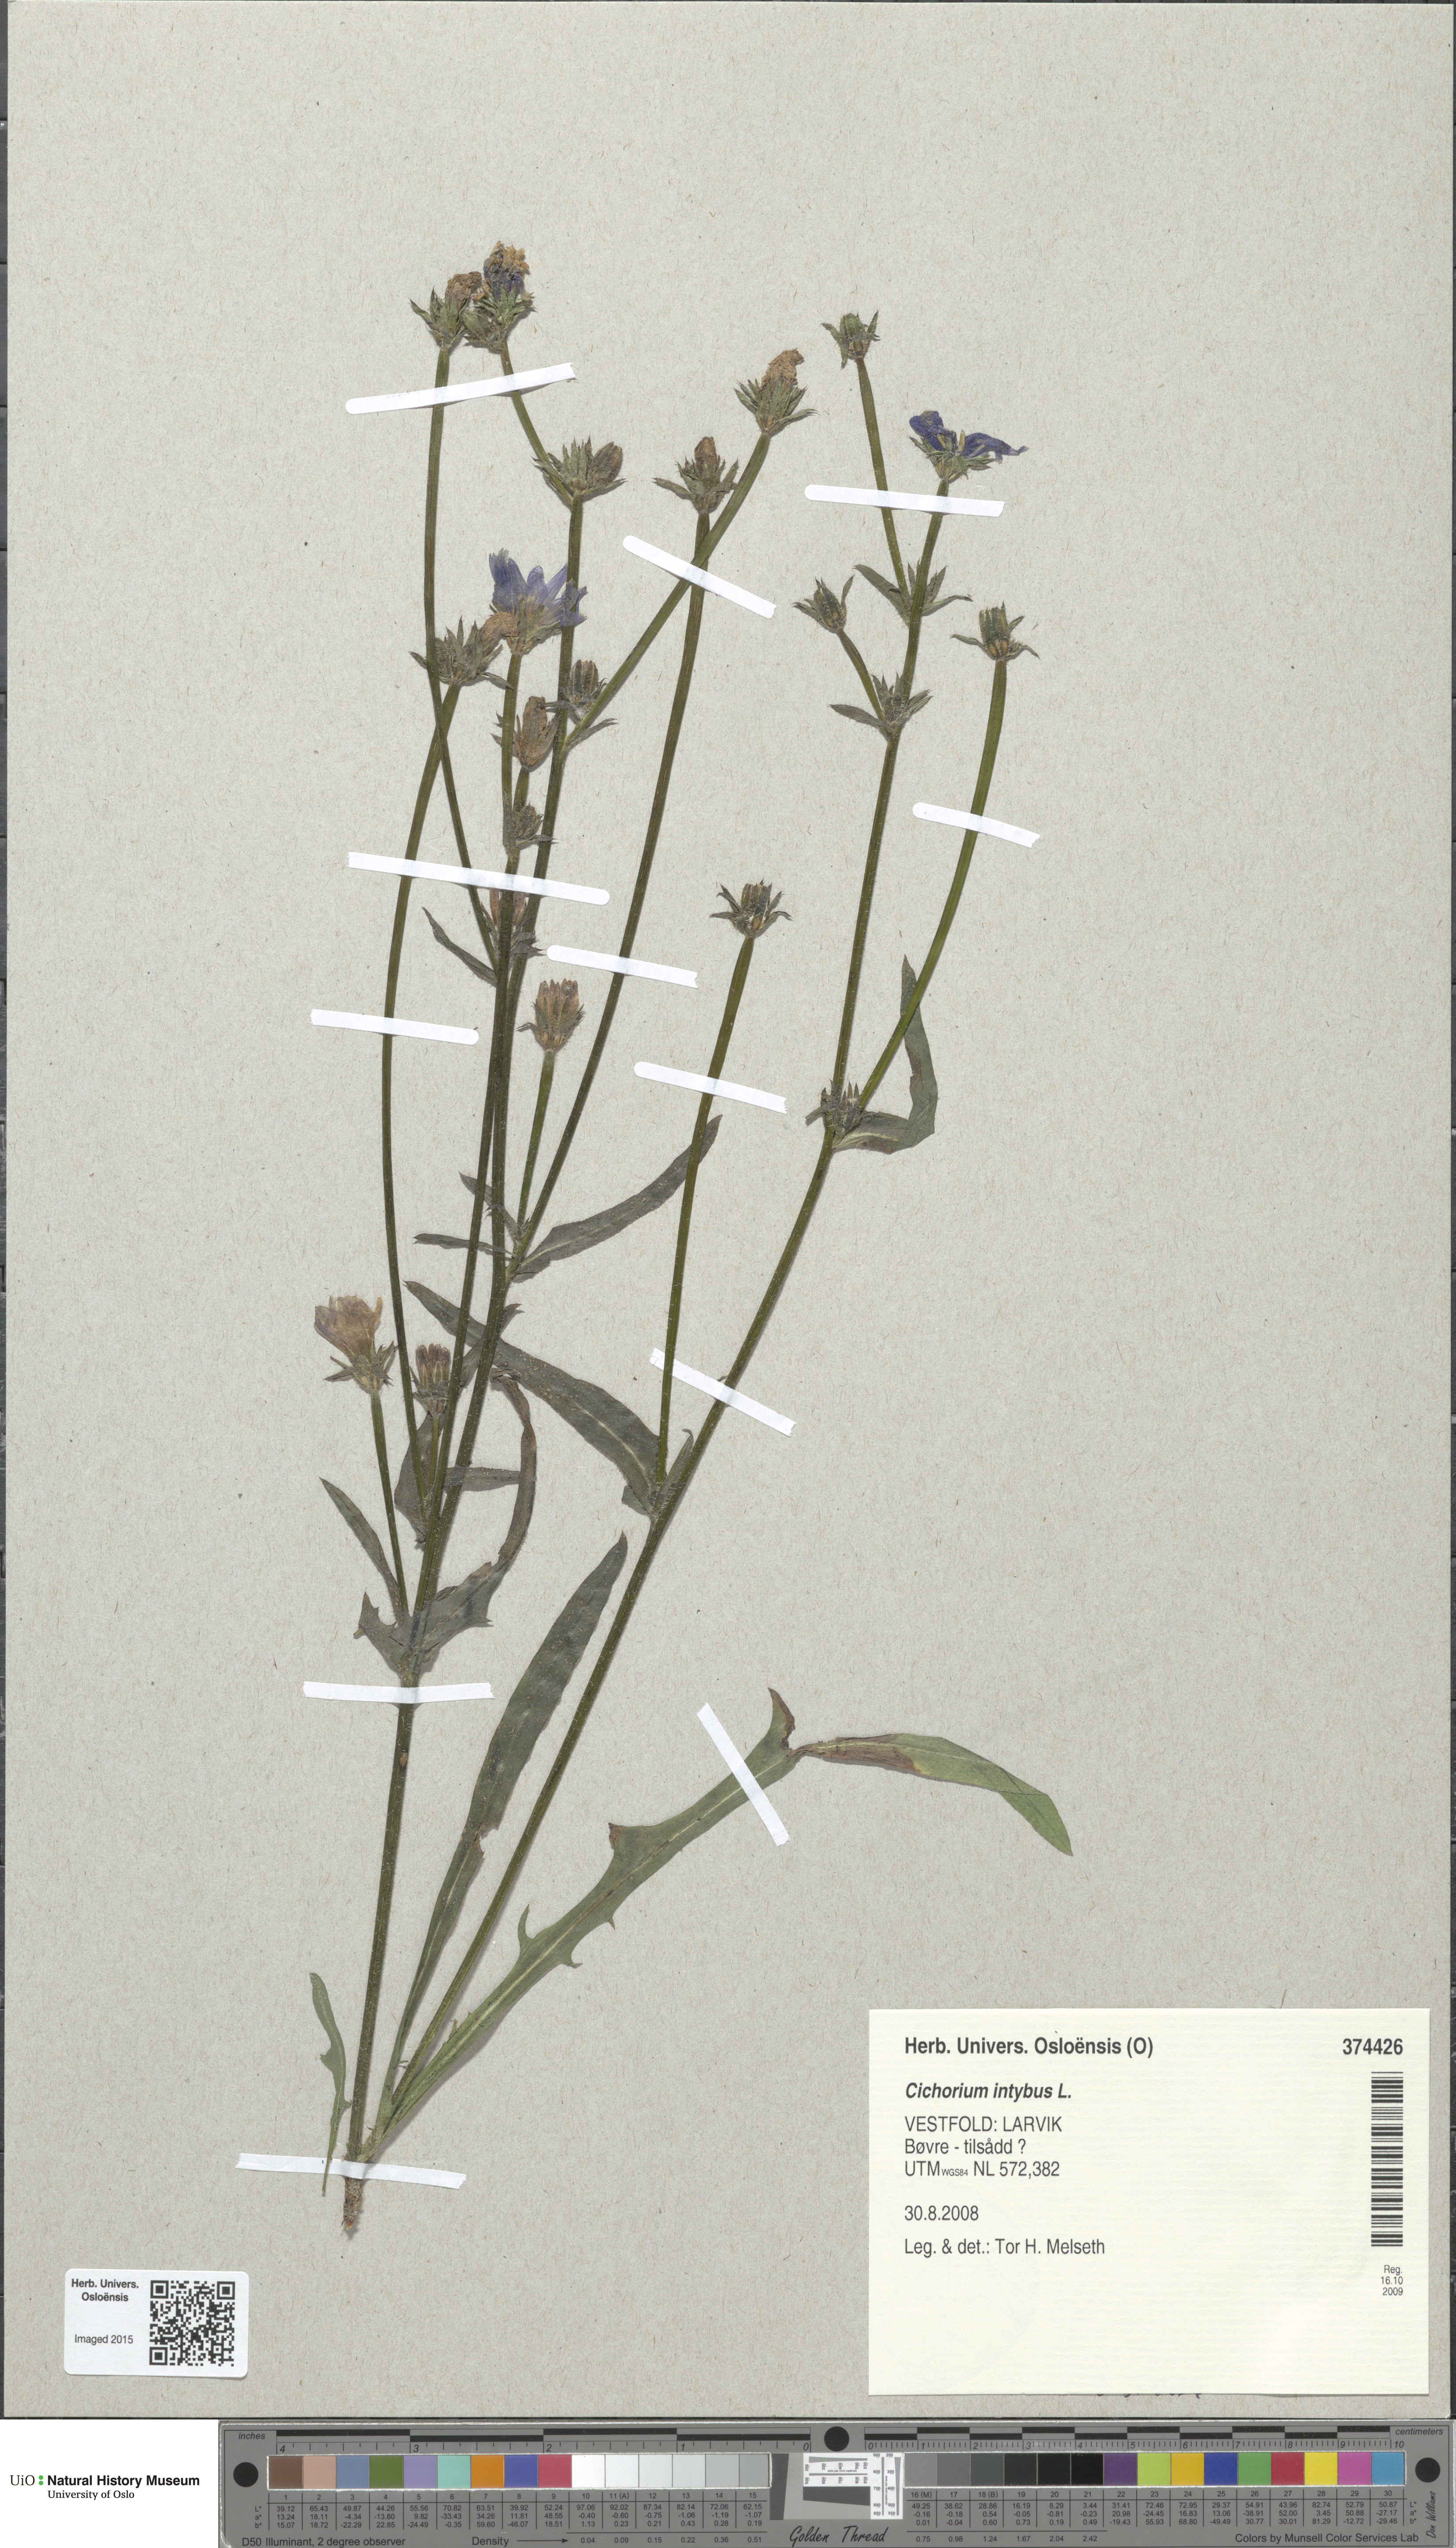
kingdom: Plantae
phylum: Tracheophyta
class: Magnoliopsida
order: Asterales
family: Asteraceae
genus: Cichorium
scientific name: Cichorium intybus
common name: Chicory
